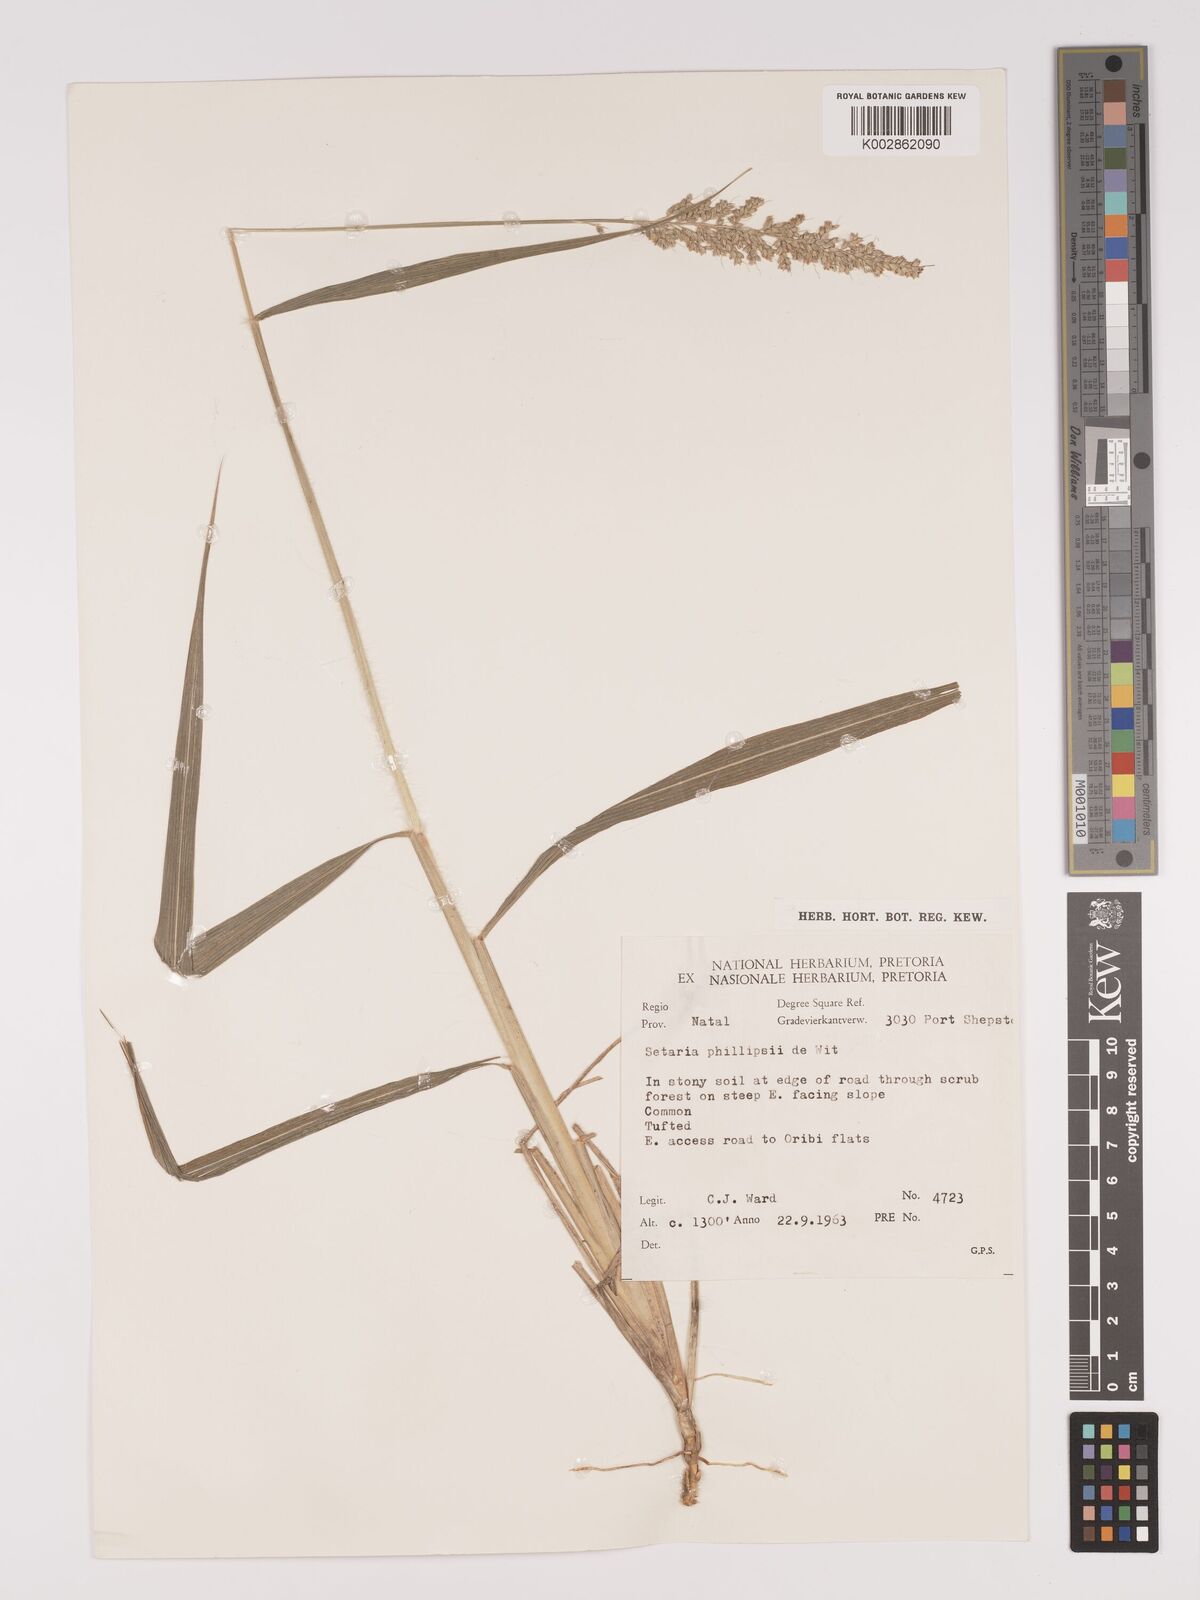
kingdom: Plantae
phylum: Tracheophyta
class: Liliopsida
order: Poales
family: Poaceae
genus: Setaria
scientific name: Setaria lindenbergiana
